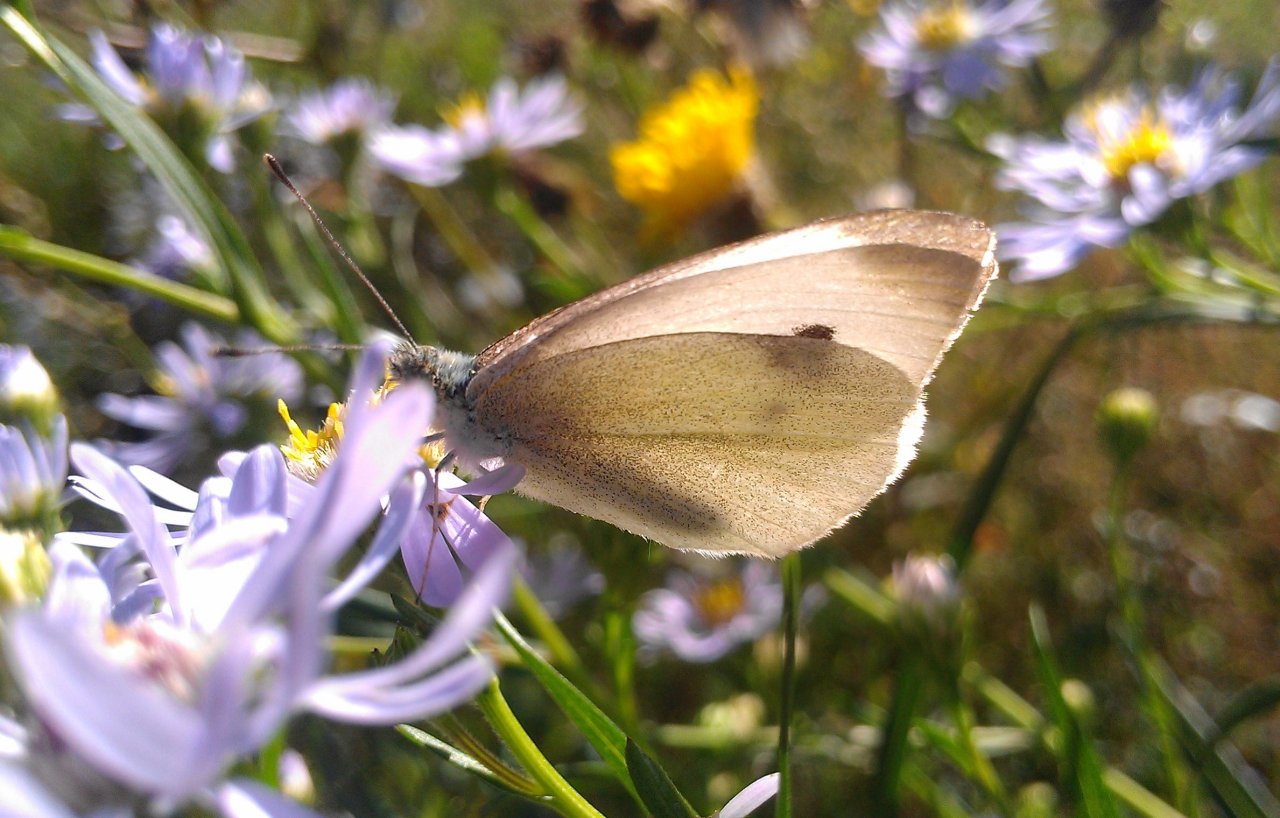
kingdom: Animalia
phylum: Arthropoda
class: Insecta
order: Lepidoptera
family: Pieridae
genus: Pieris
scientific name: Pieris rapae
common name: Cabbage White
